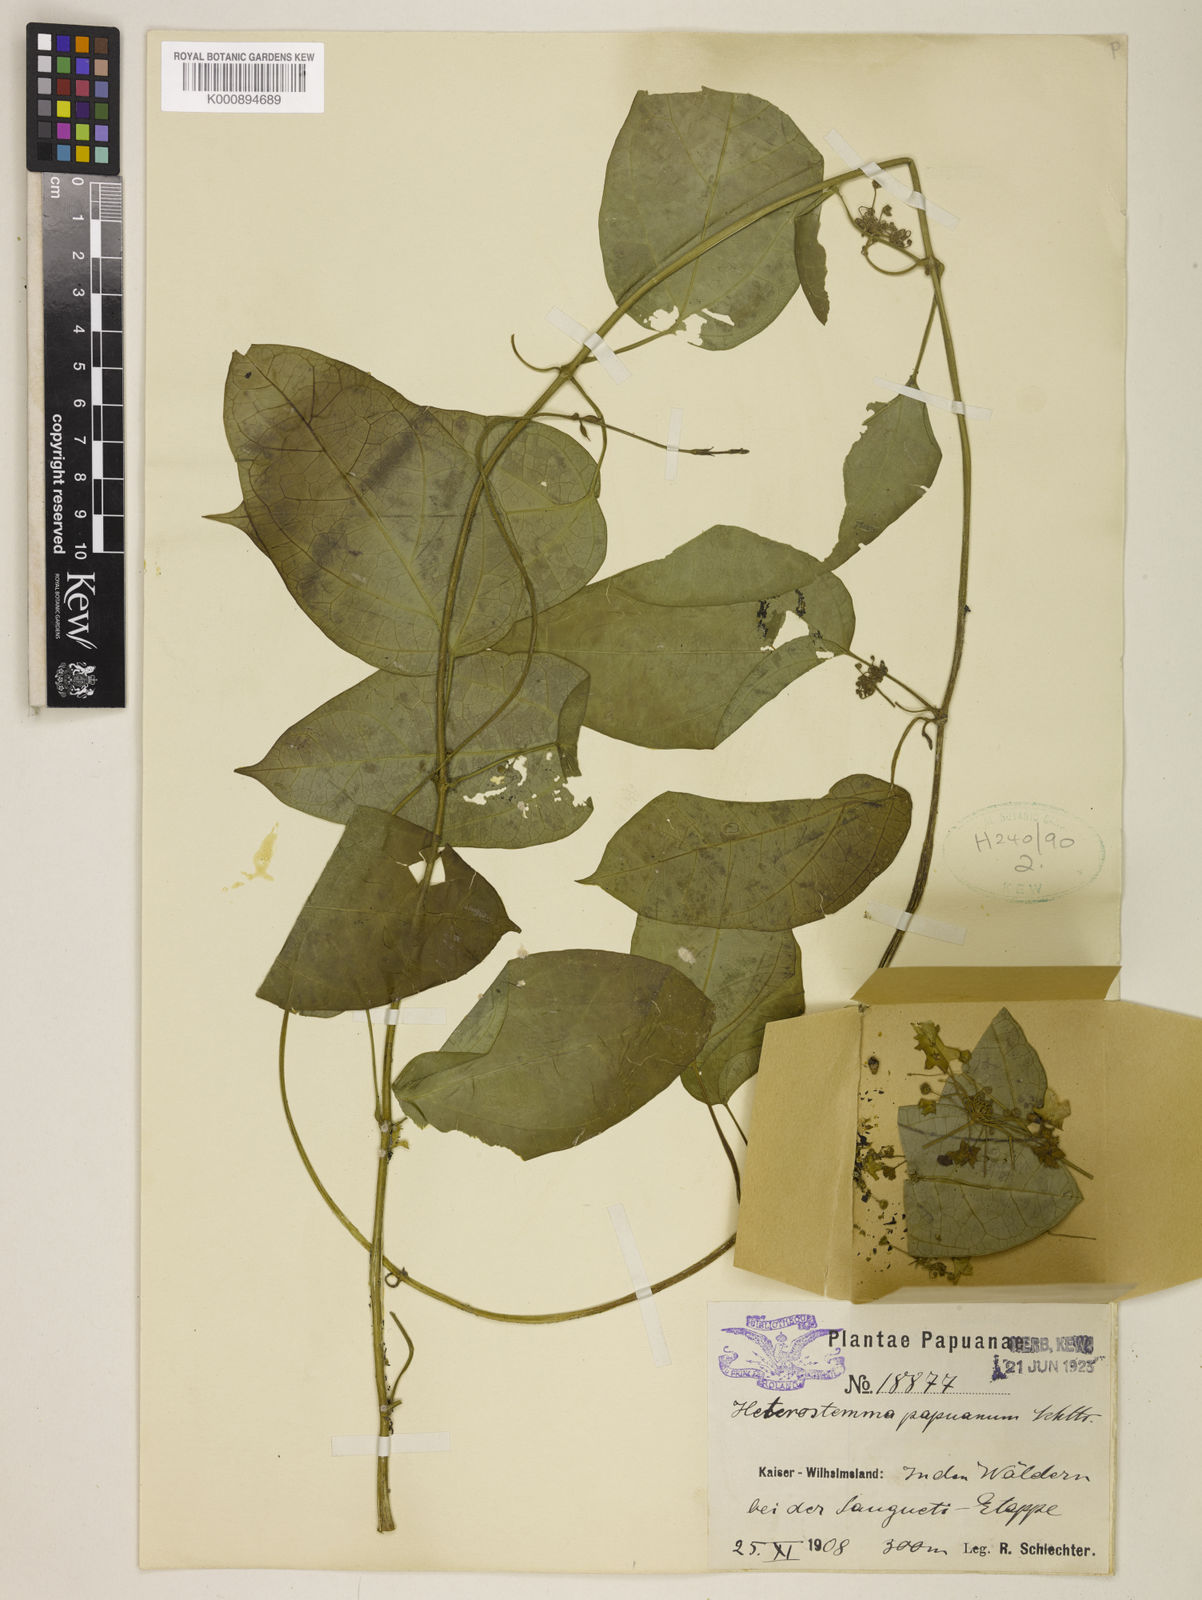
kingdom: Plantae
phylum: Tracheophyta
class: Magnoliopsida
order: Gentianales
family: Apocynaceae
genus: Heterostemma
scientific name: Heterostemma acuminatum
